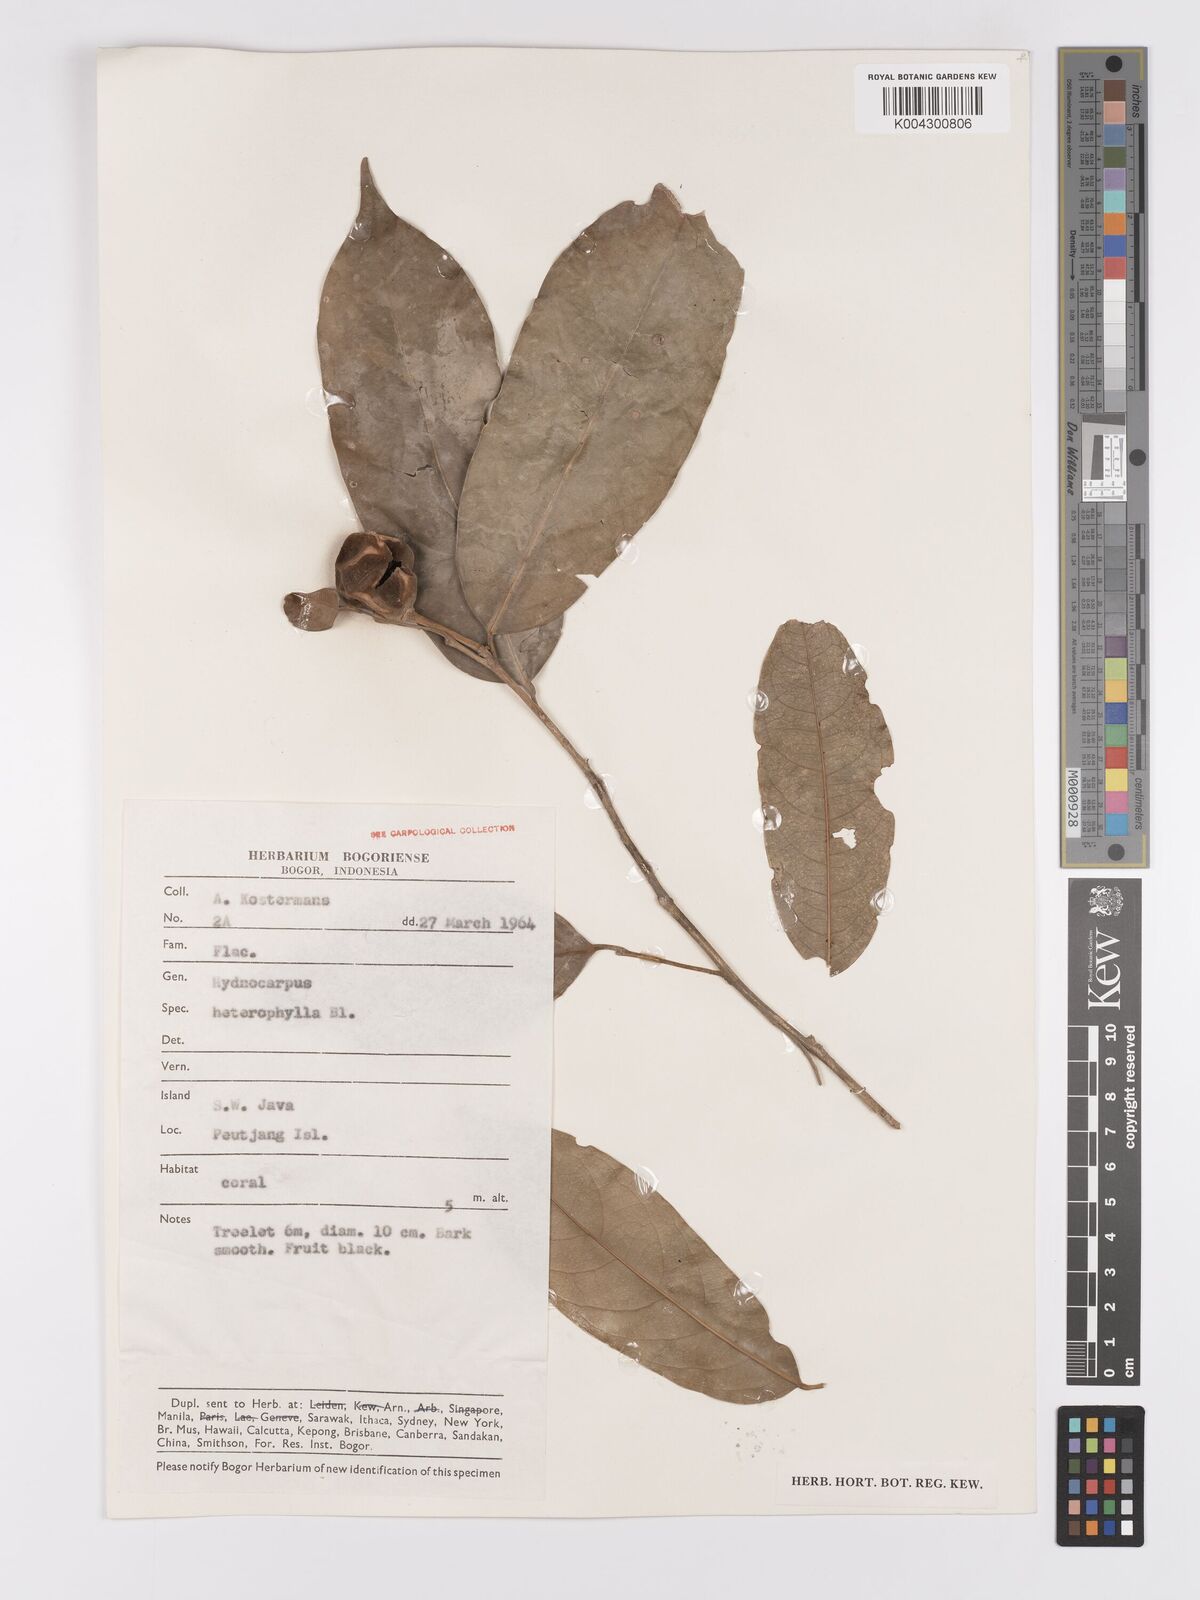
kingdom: Plantae
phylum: Tracheophyta
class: Magnoliopsida
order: Malpighiales
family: Achariaceae
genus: Hydnocarpus
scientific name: Hydnocarpus heterophyllus
